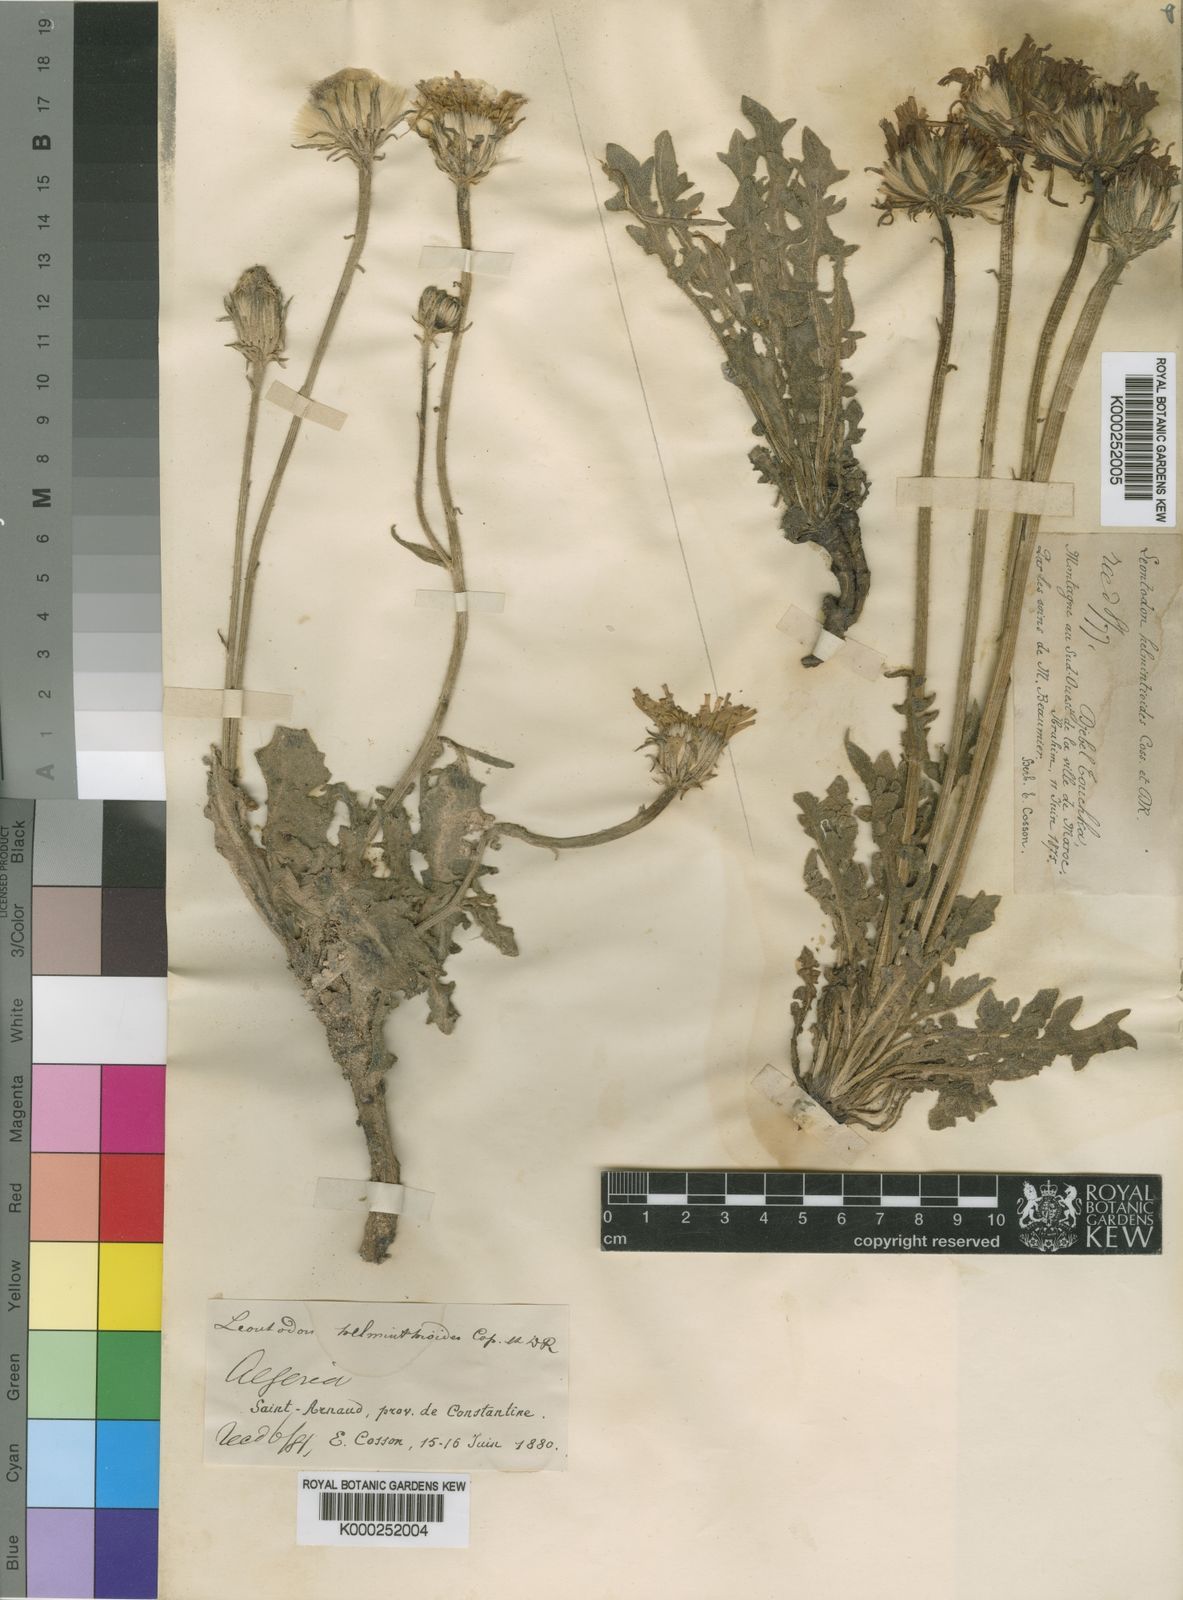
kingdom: Plantae
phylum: Tracheophyta
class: Magnoliopsida
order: Asterales
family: Asteraceae
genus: Leontodon
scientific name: Leontodon
